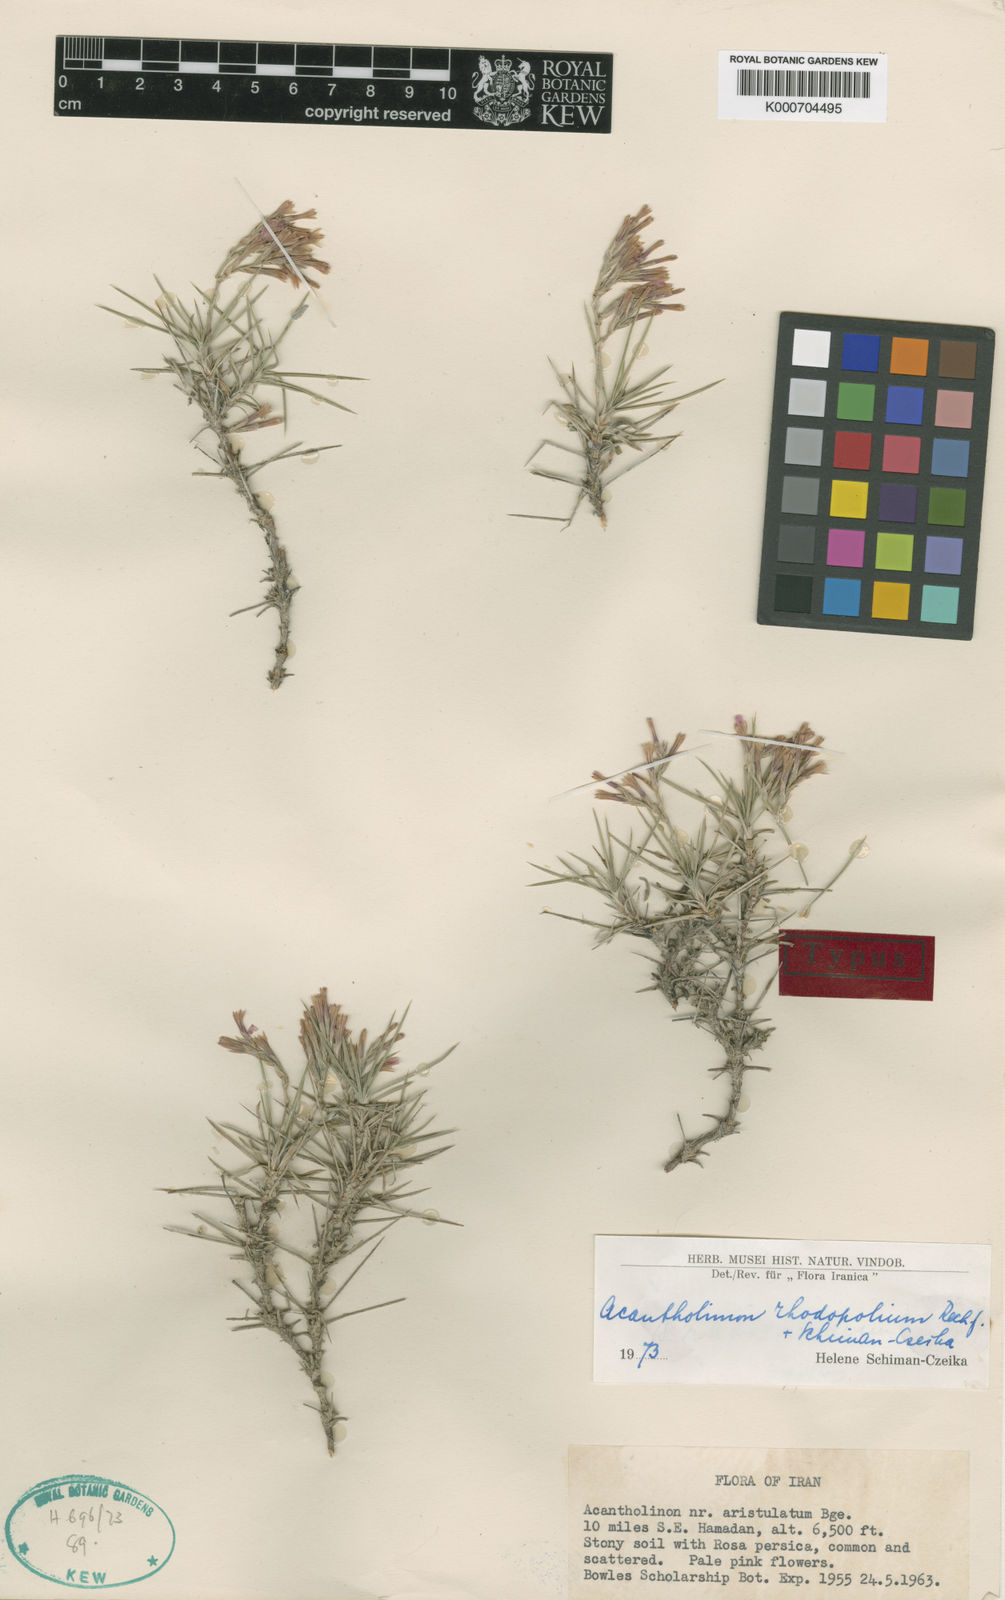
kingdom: Plantae
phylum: Tracheophyta
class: Magnoliopsida
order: Caryophyllales
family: Plumbaginaceae
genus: Acantholimon
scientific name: Acantholimon rhodopolium
